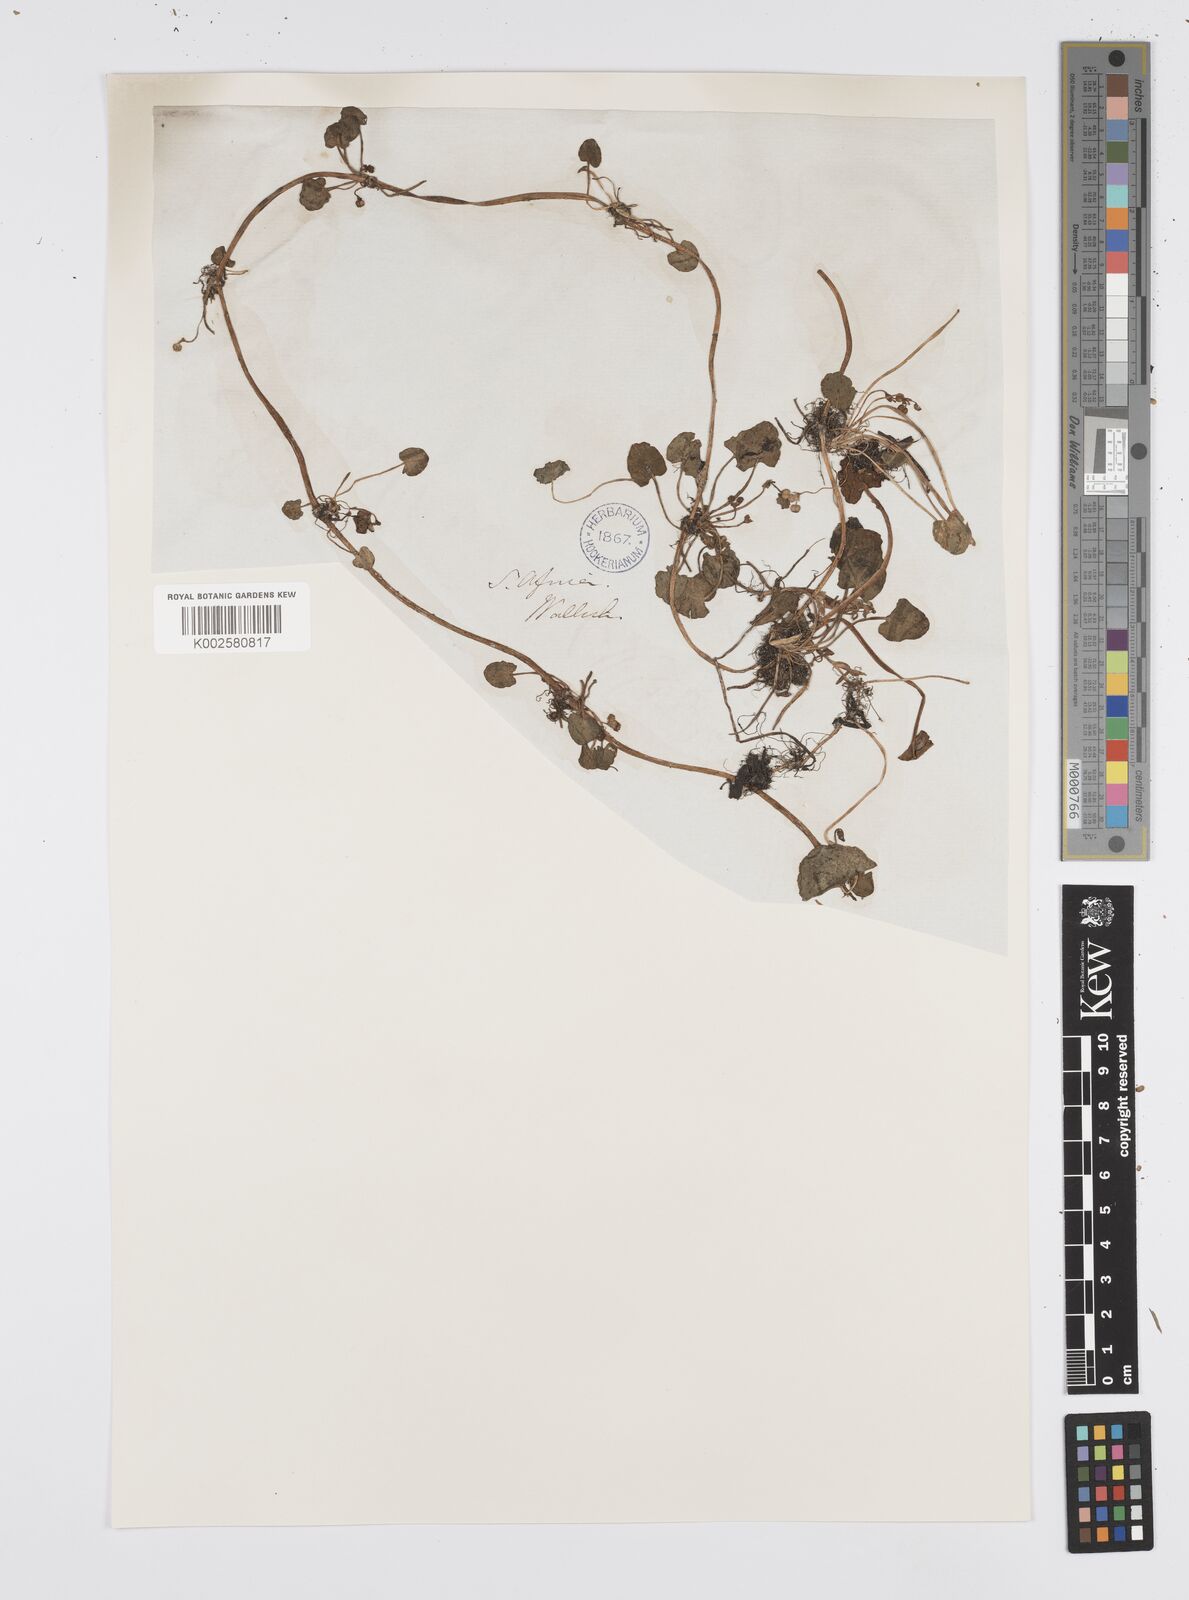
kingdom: Plantae
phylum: Tracheophyta
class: Magnoliopsida
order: Apiales
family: Apiaceae
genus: Centella
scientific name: Centella coriacea
